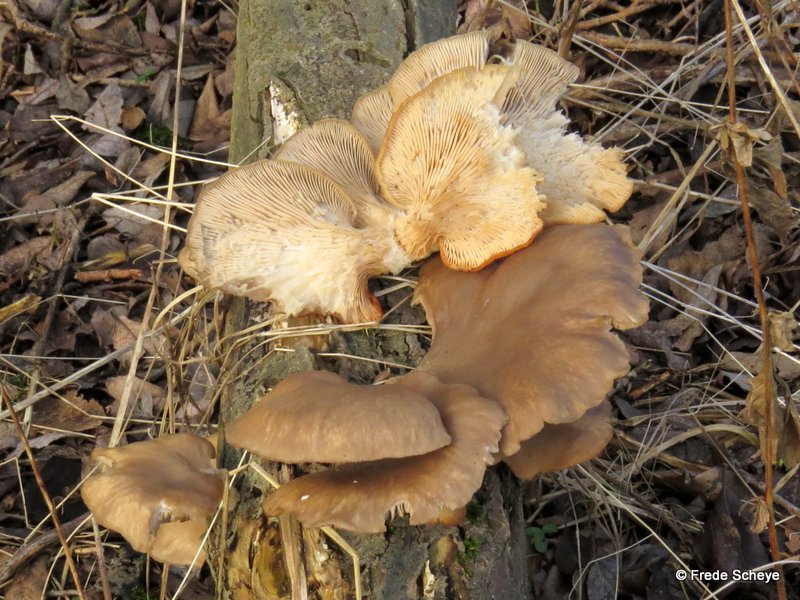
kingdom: Fungi
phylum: Basidiomycota
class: Agaricomycetes
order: Agaricales
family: Pleurotaceae
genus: Pleurotus
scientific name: Pleurotus ostreatus
